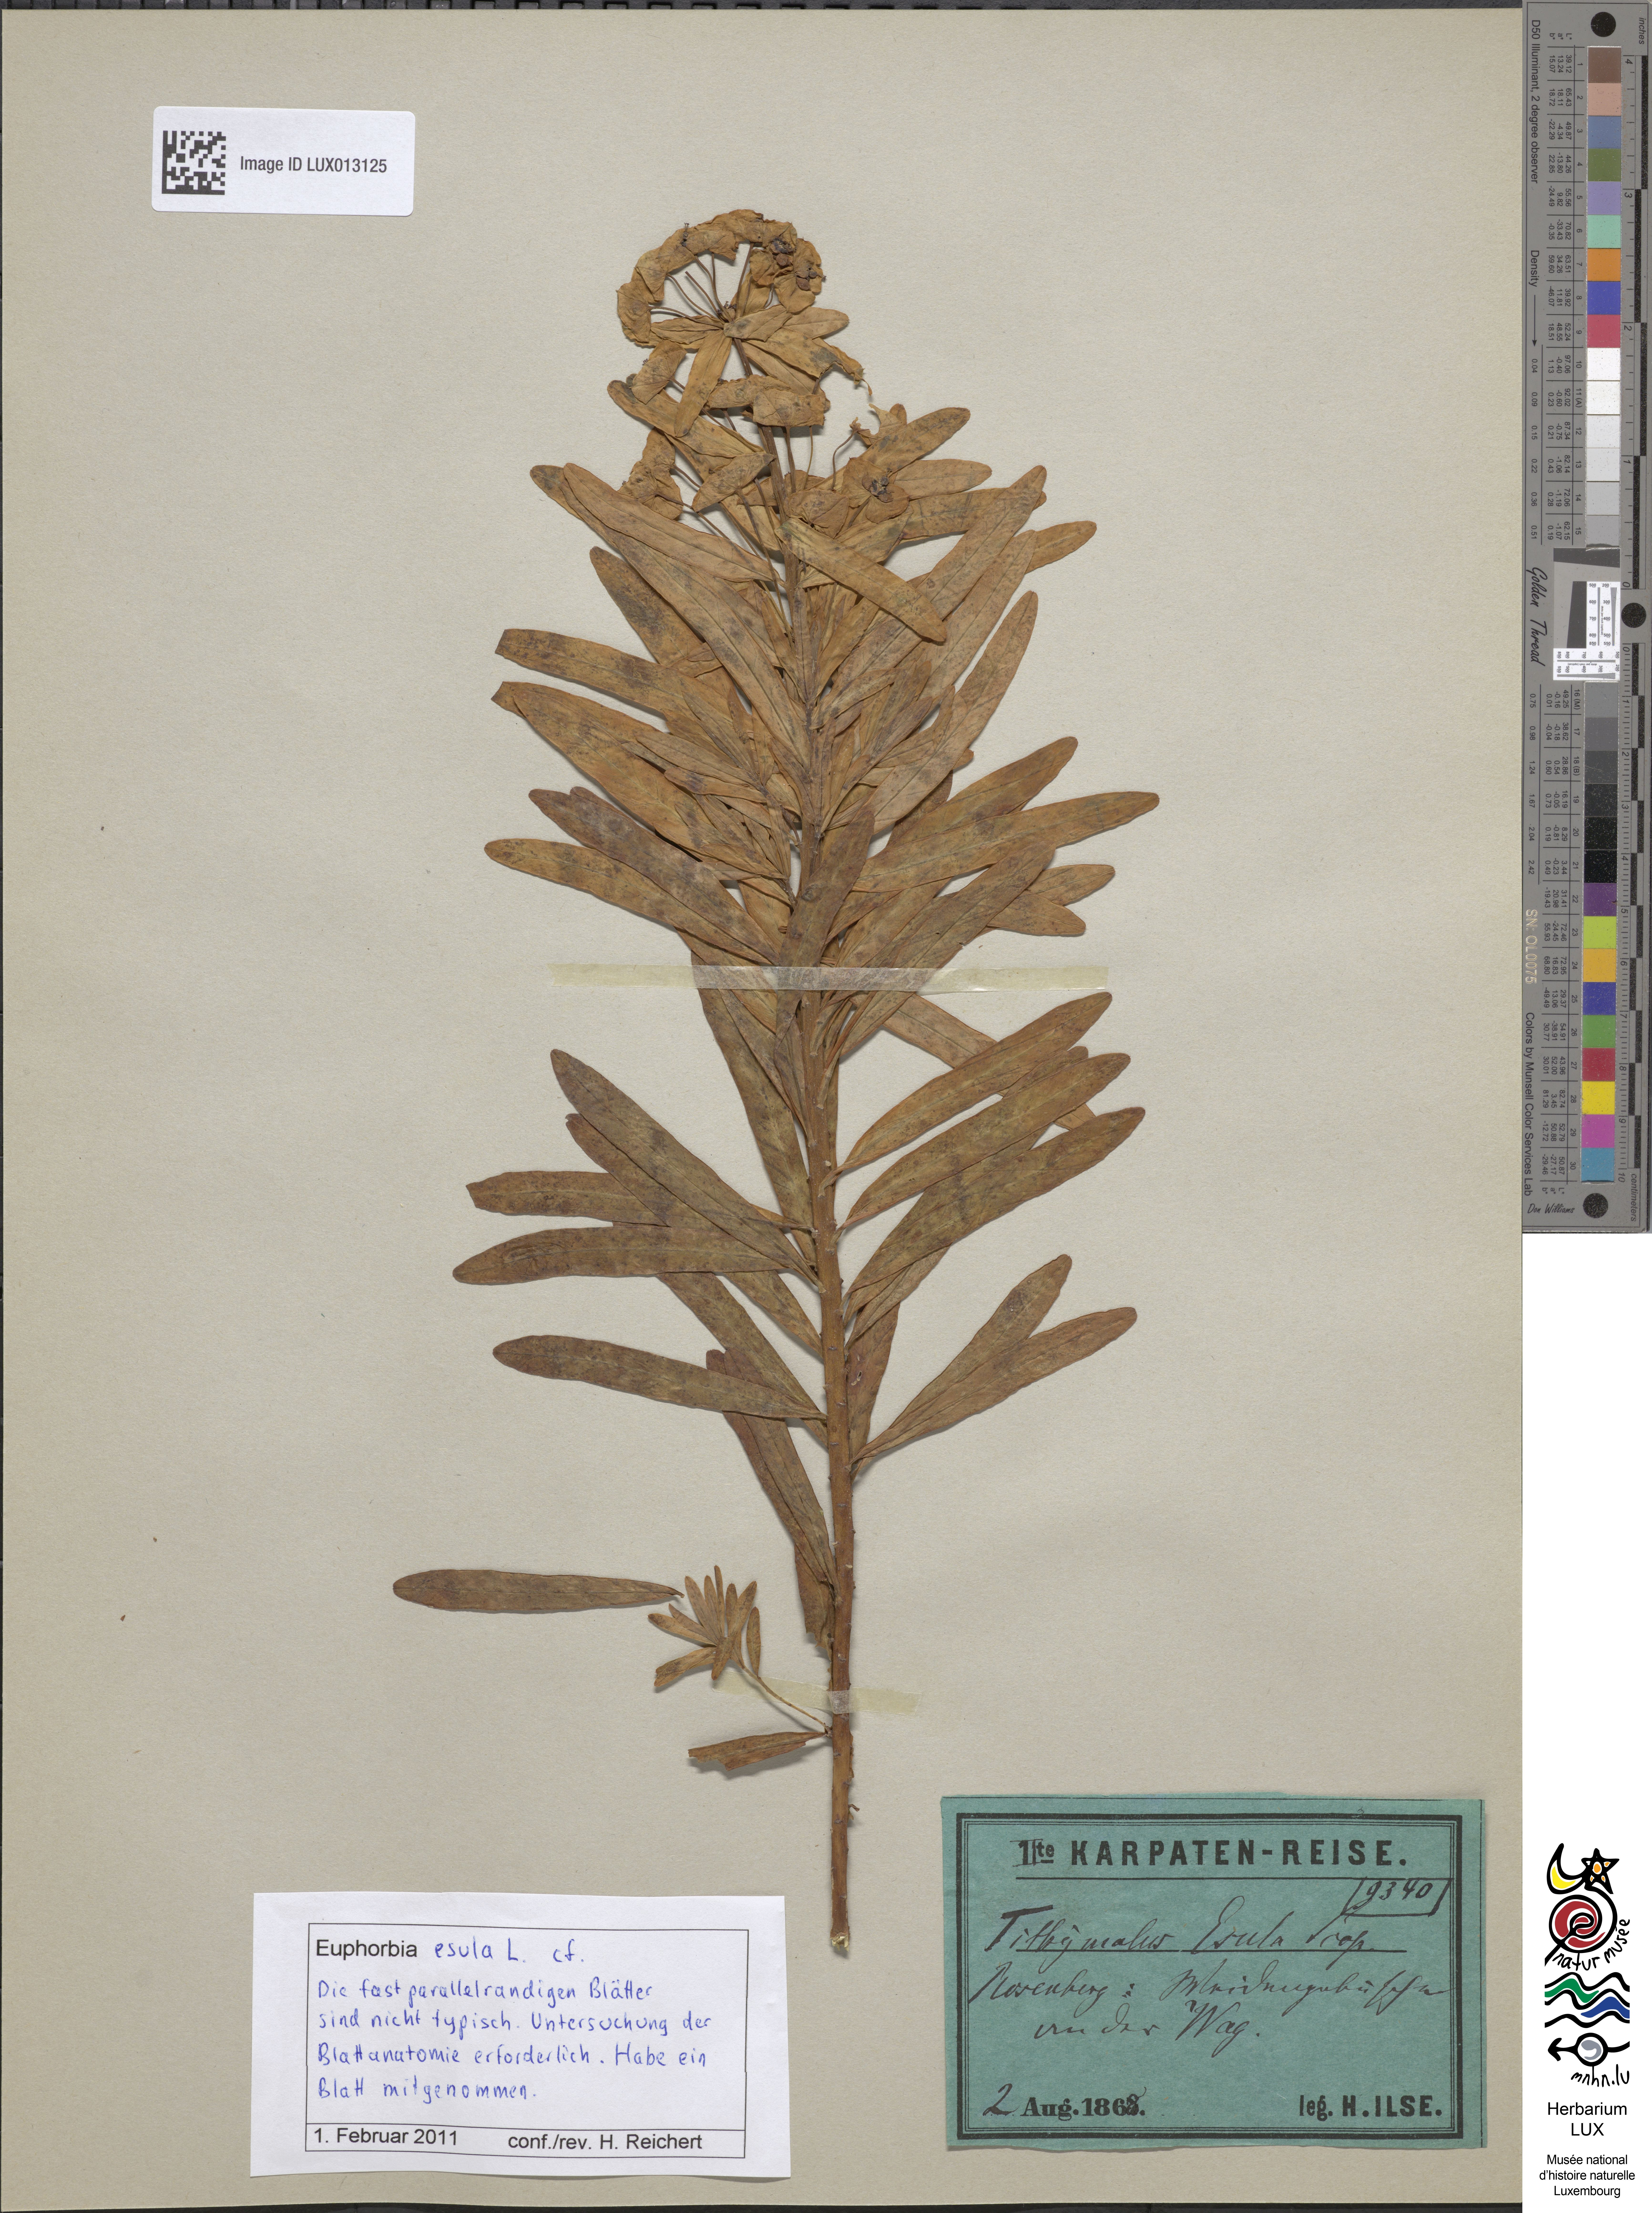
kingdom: Plantae
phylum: Tracheophyta
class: Magnoliopsida
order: Malpighiales
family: Euphorbiaceae
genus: Euphorbia
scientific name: Euphorbia esula
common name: Leafy spurge
